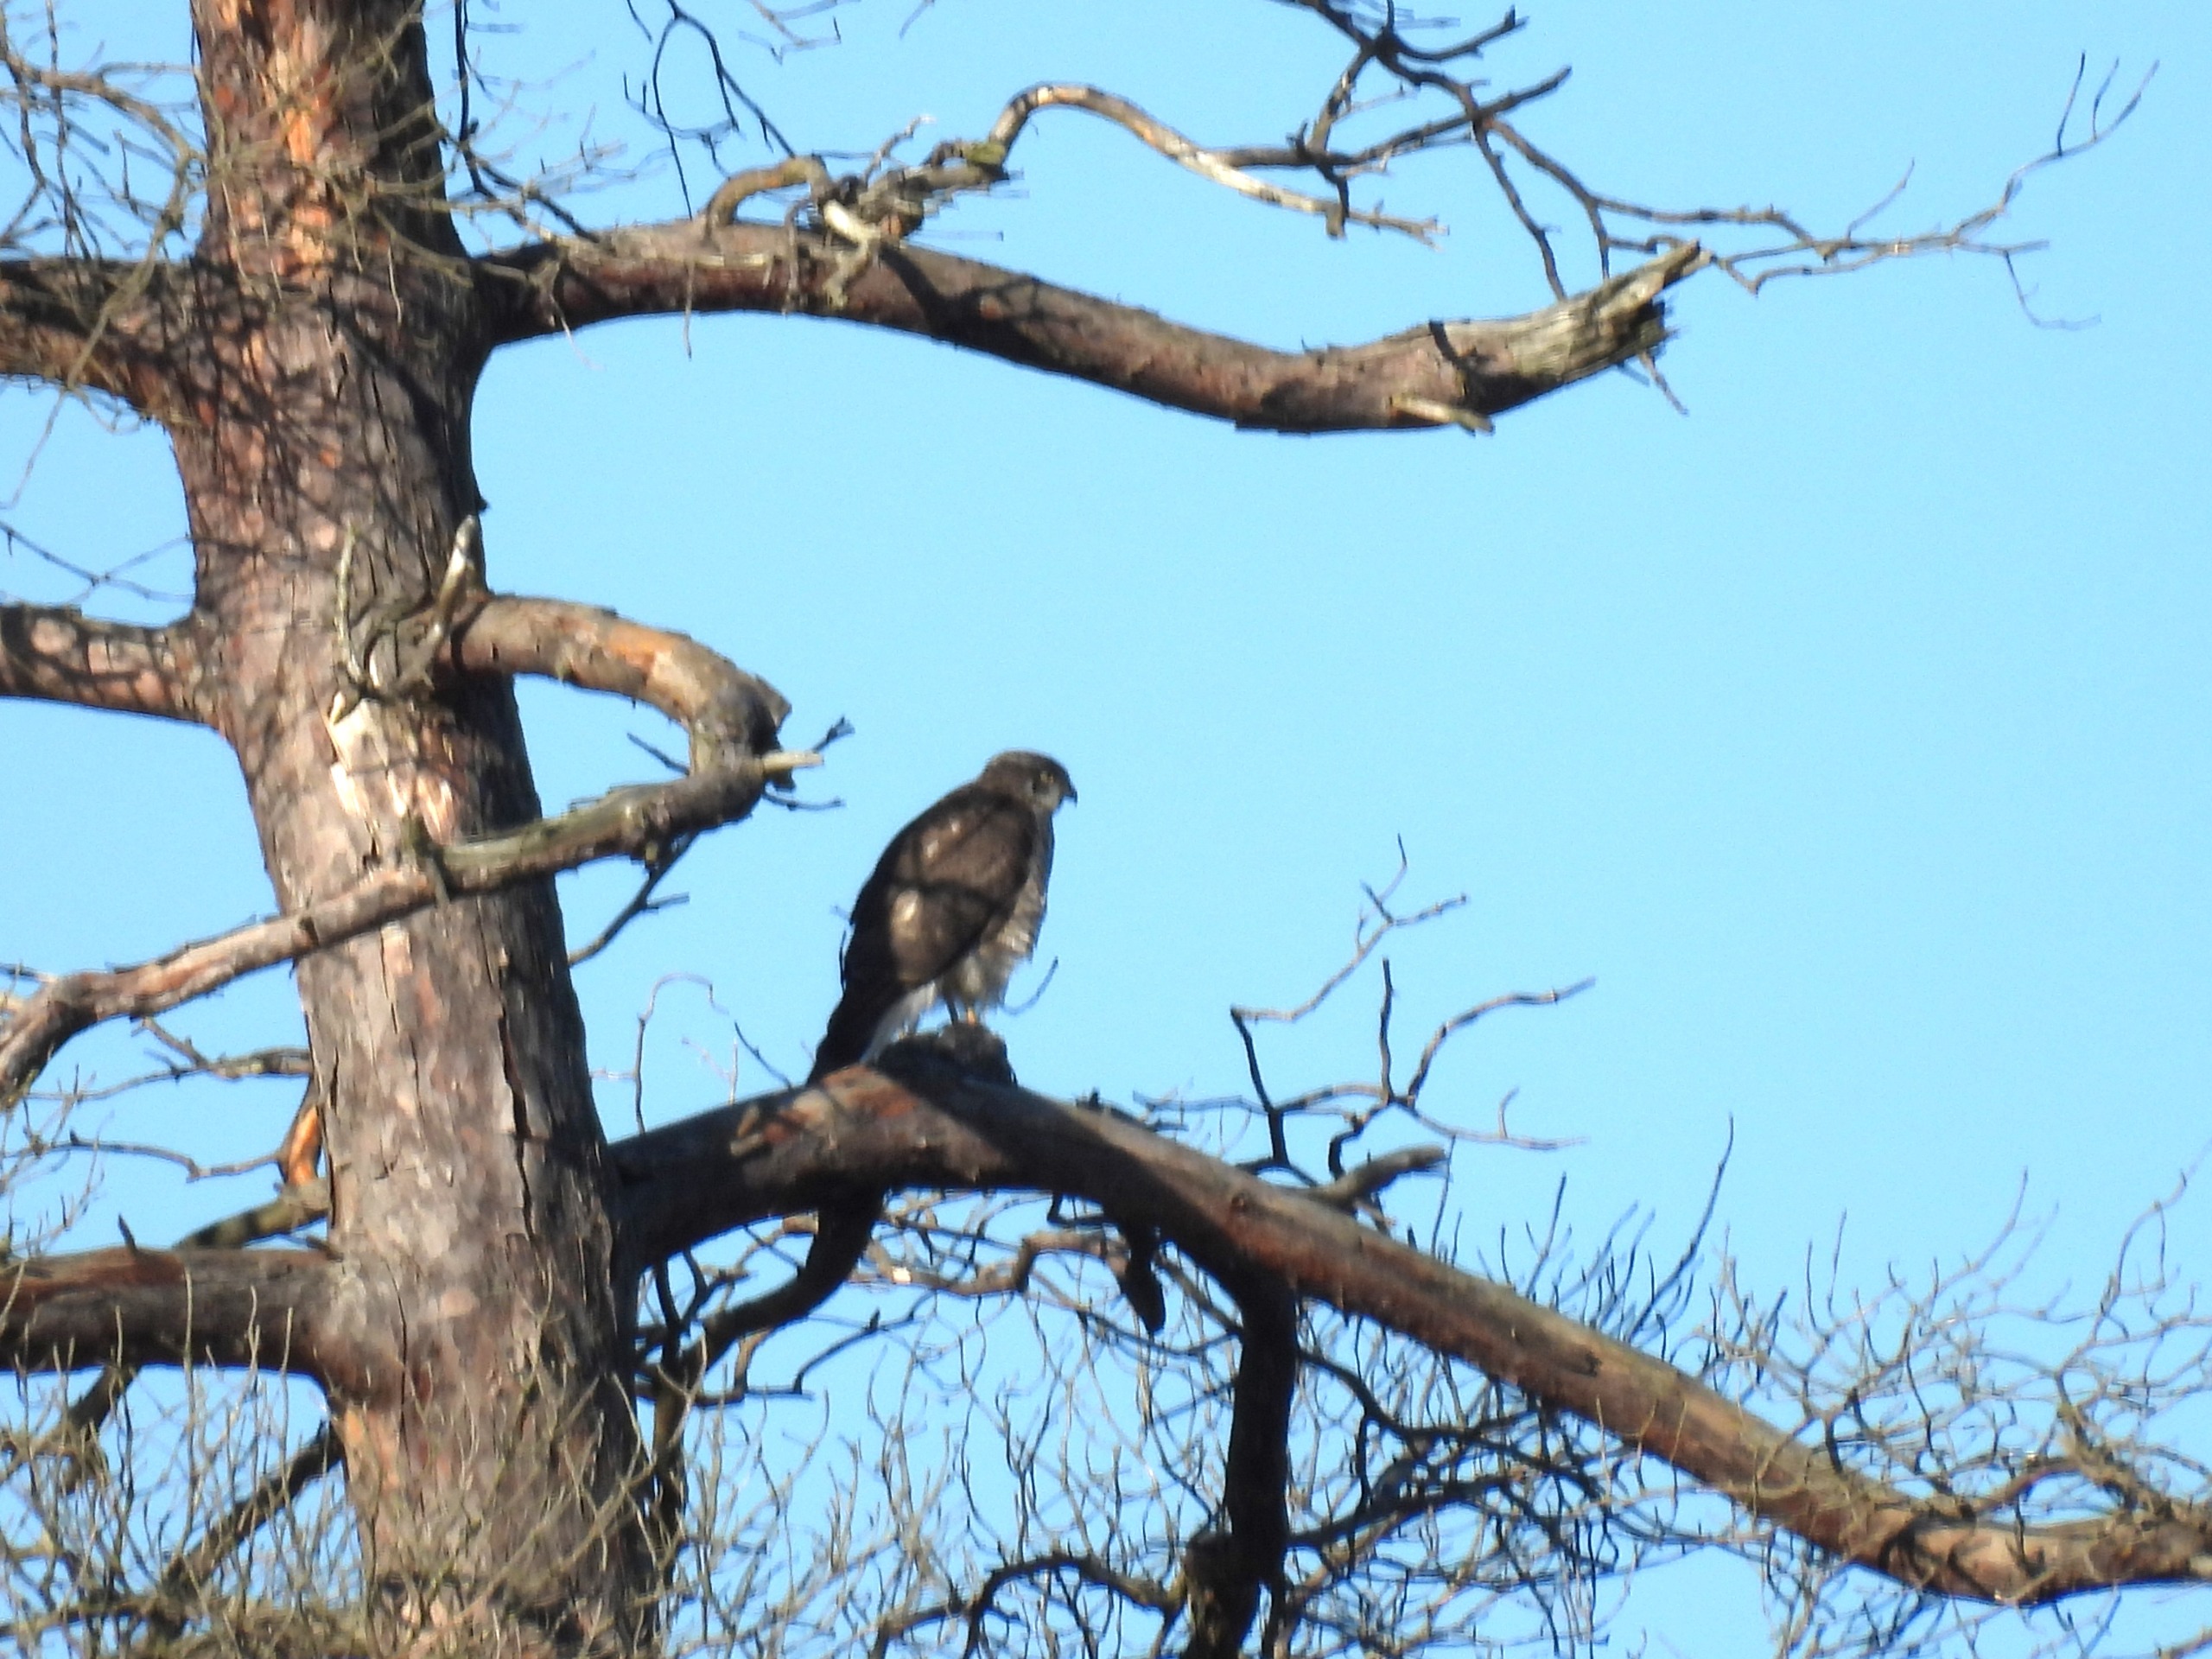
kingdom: Animalia
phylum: Chordata
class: Aves
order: Accipitriformes
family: Accipitridae
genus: Accipiter
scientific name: Accipiter gentilis
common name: Duehøg
